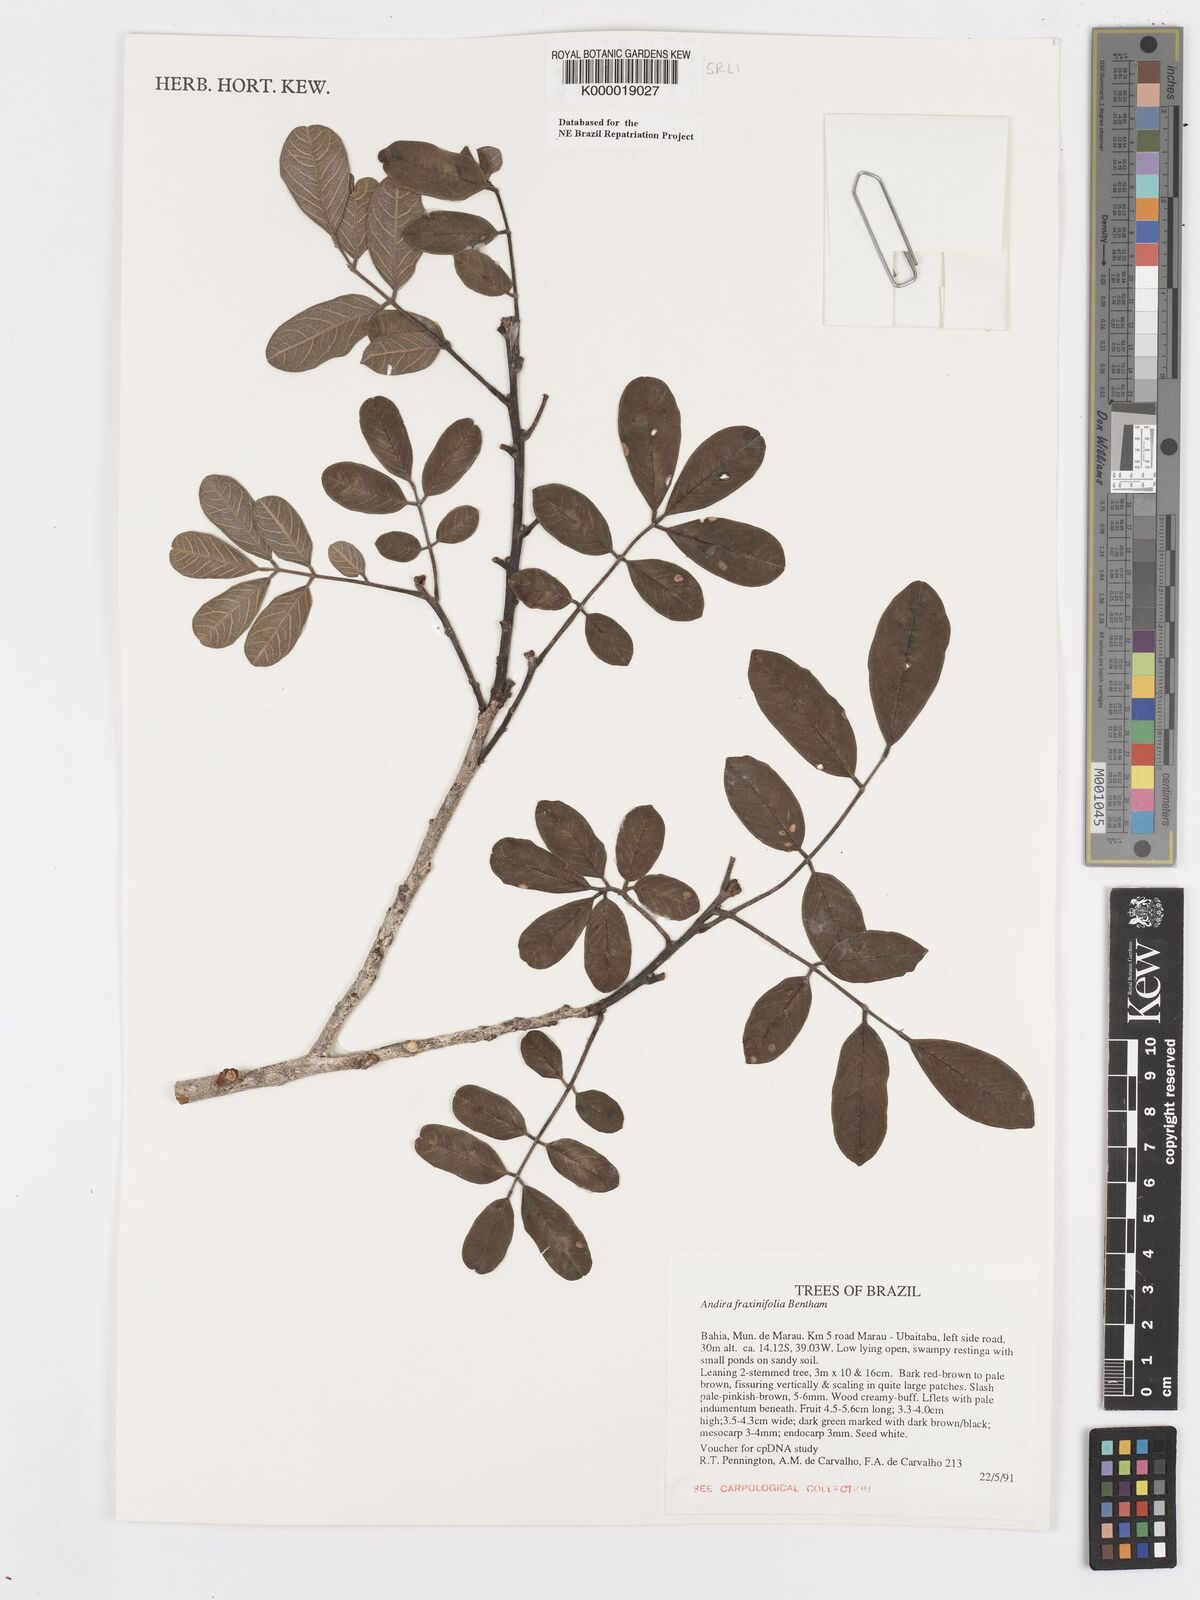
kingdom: Plantae
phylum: Tracheophyta
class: Magnoliopsida
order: Fabales
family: Fabaceae
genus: Andira
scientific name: Andira fraxinifolia
